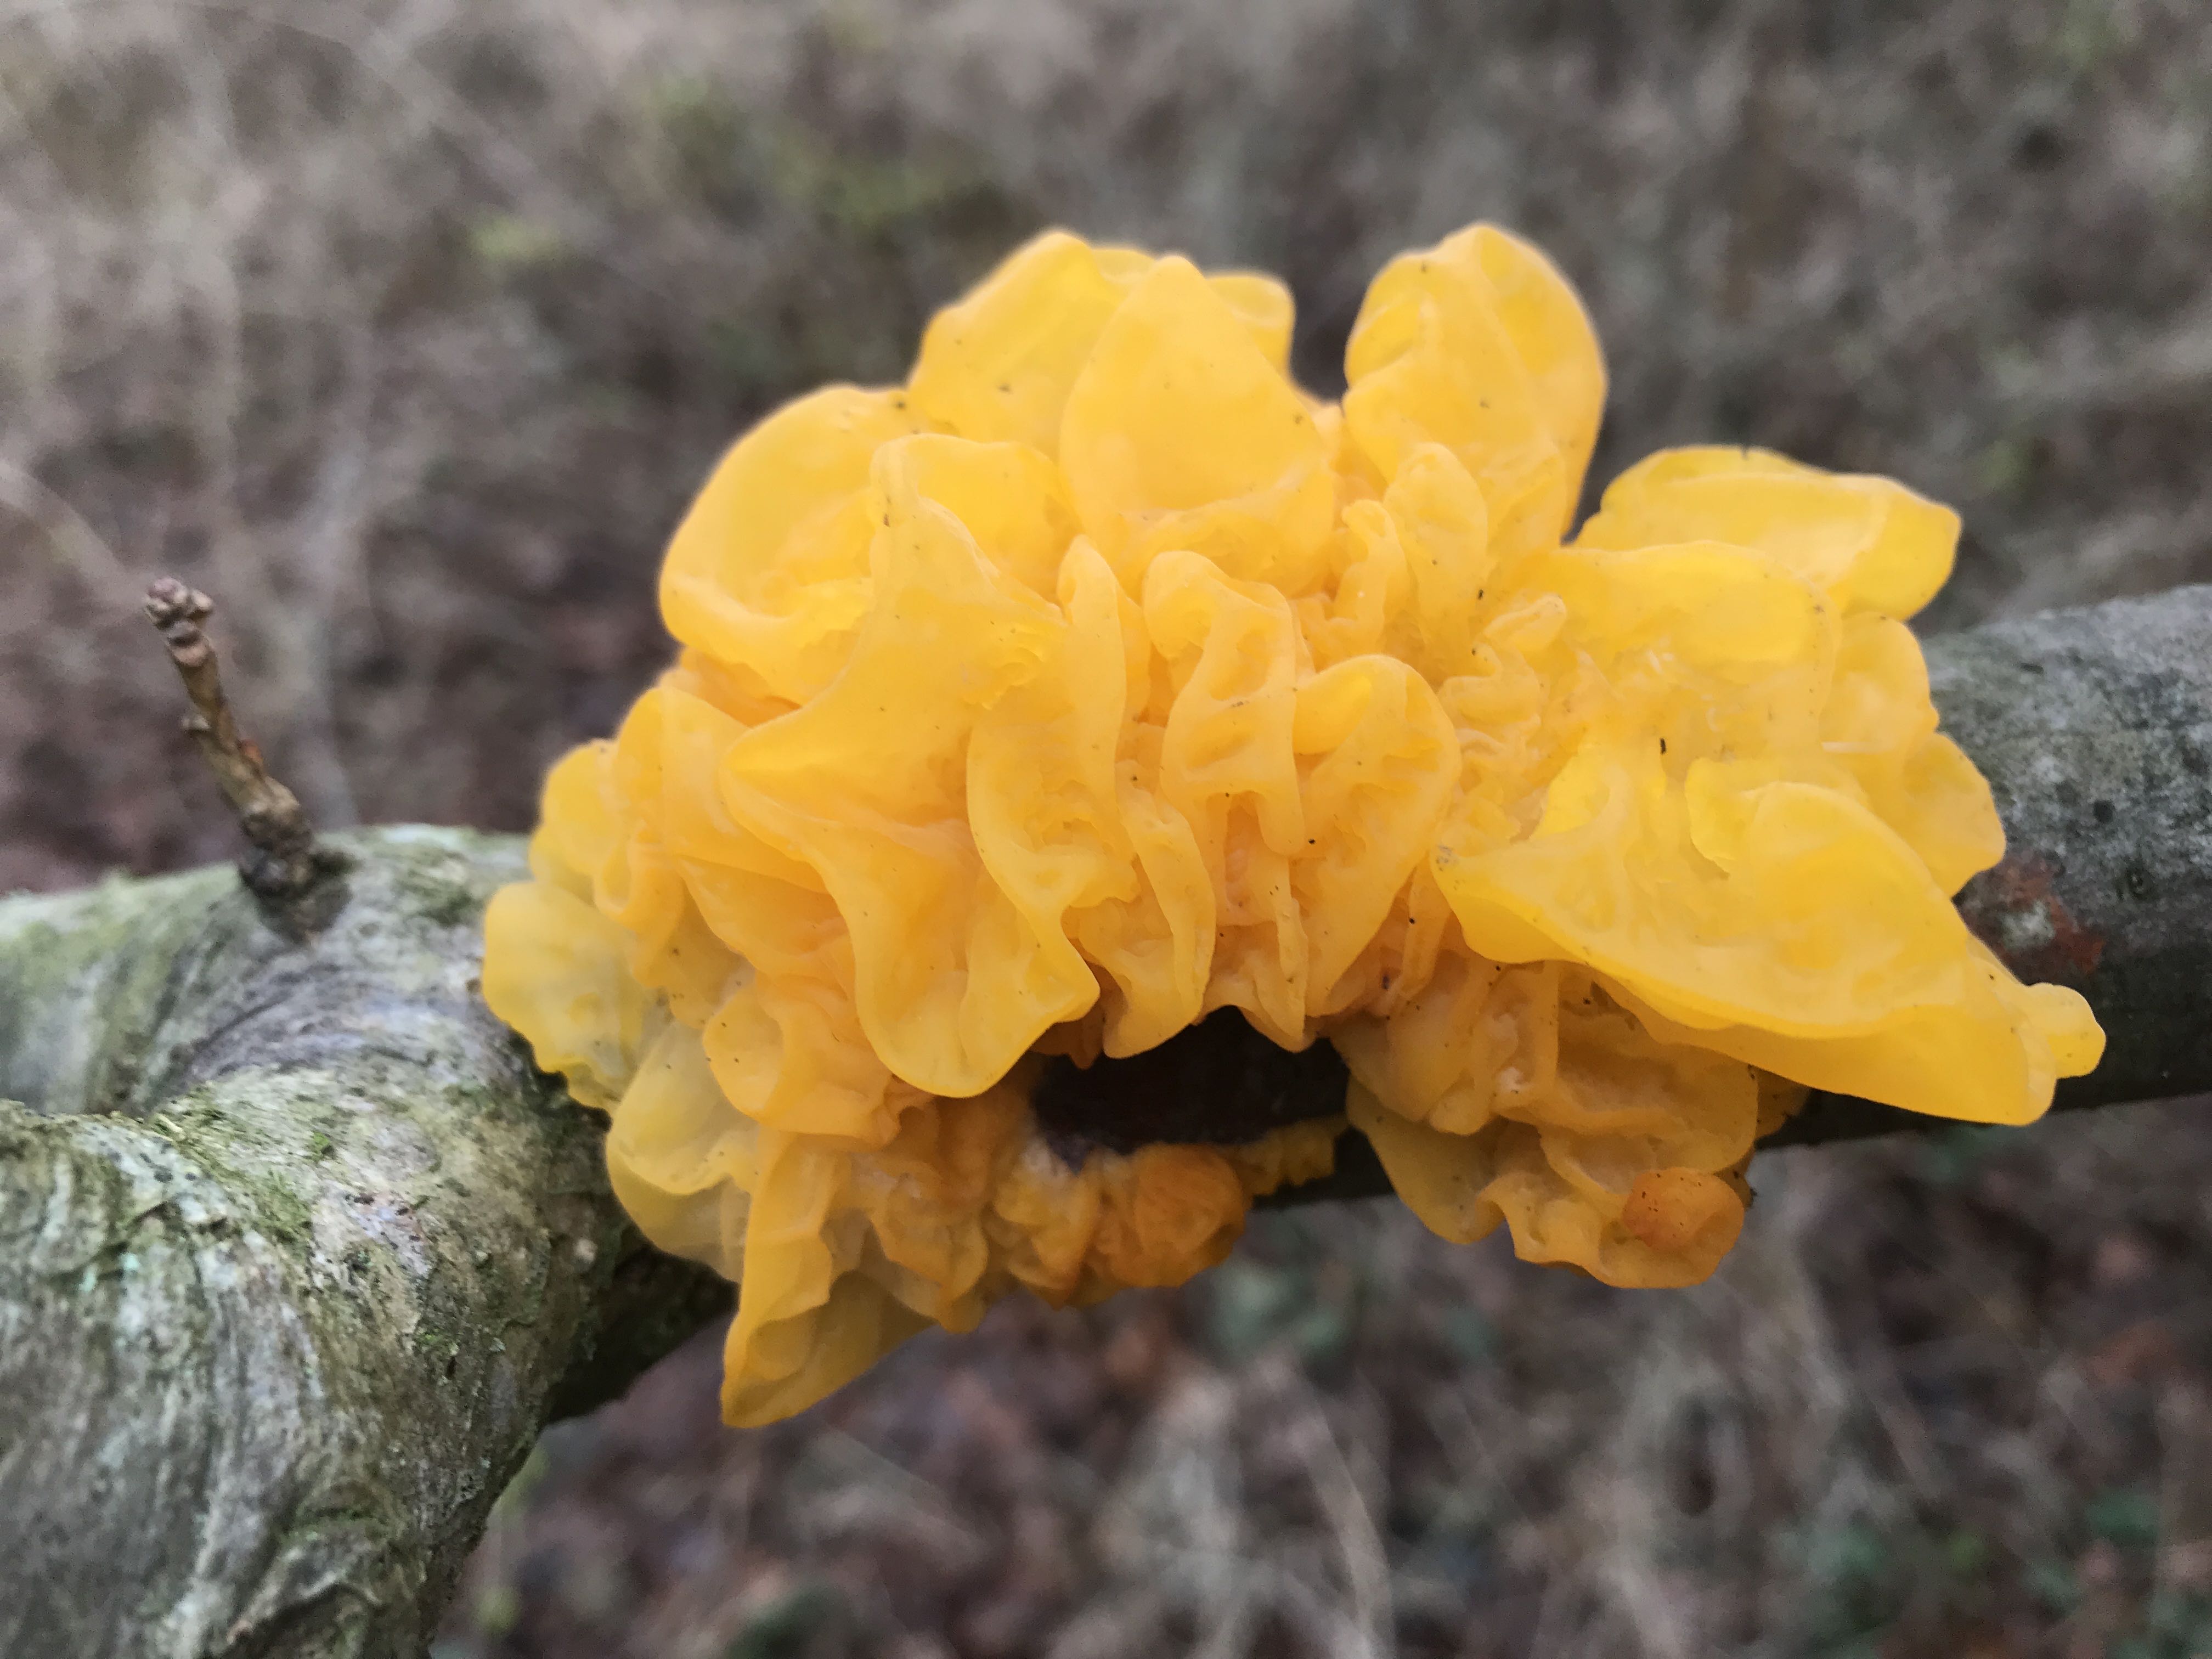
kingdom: Fungi
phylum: Basidiomycota
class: Tremellomycetes
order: Tremellales
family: Tremellaceae
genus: Tremella
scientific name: Tremella mesenterica
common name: gul bævresvamp
